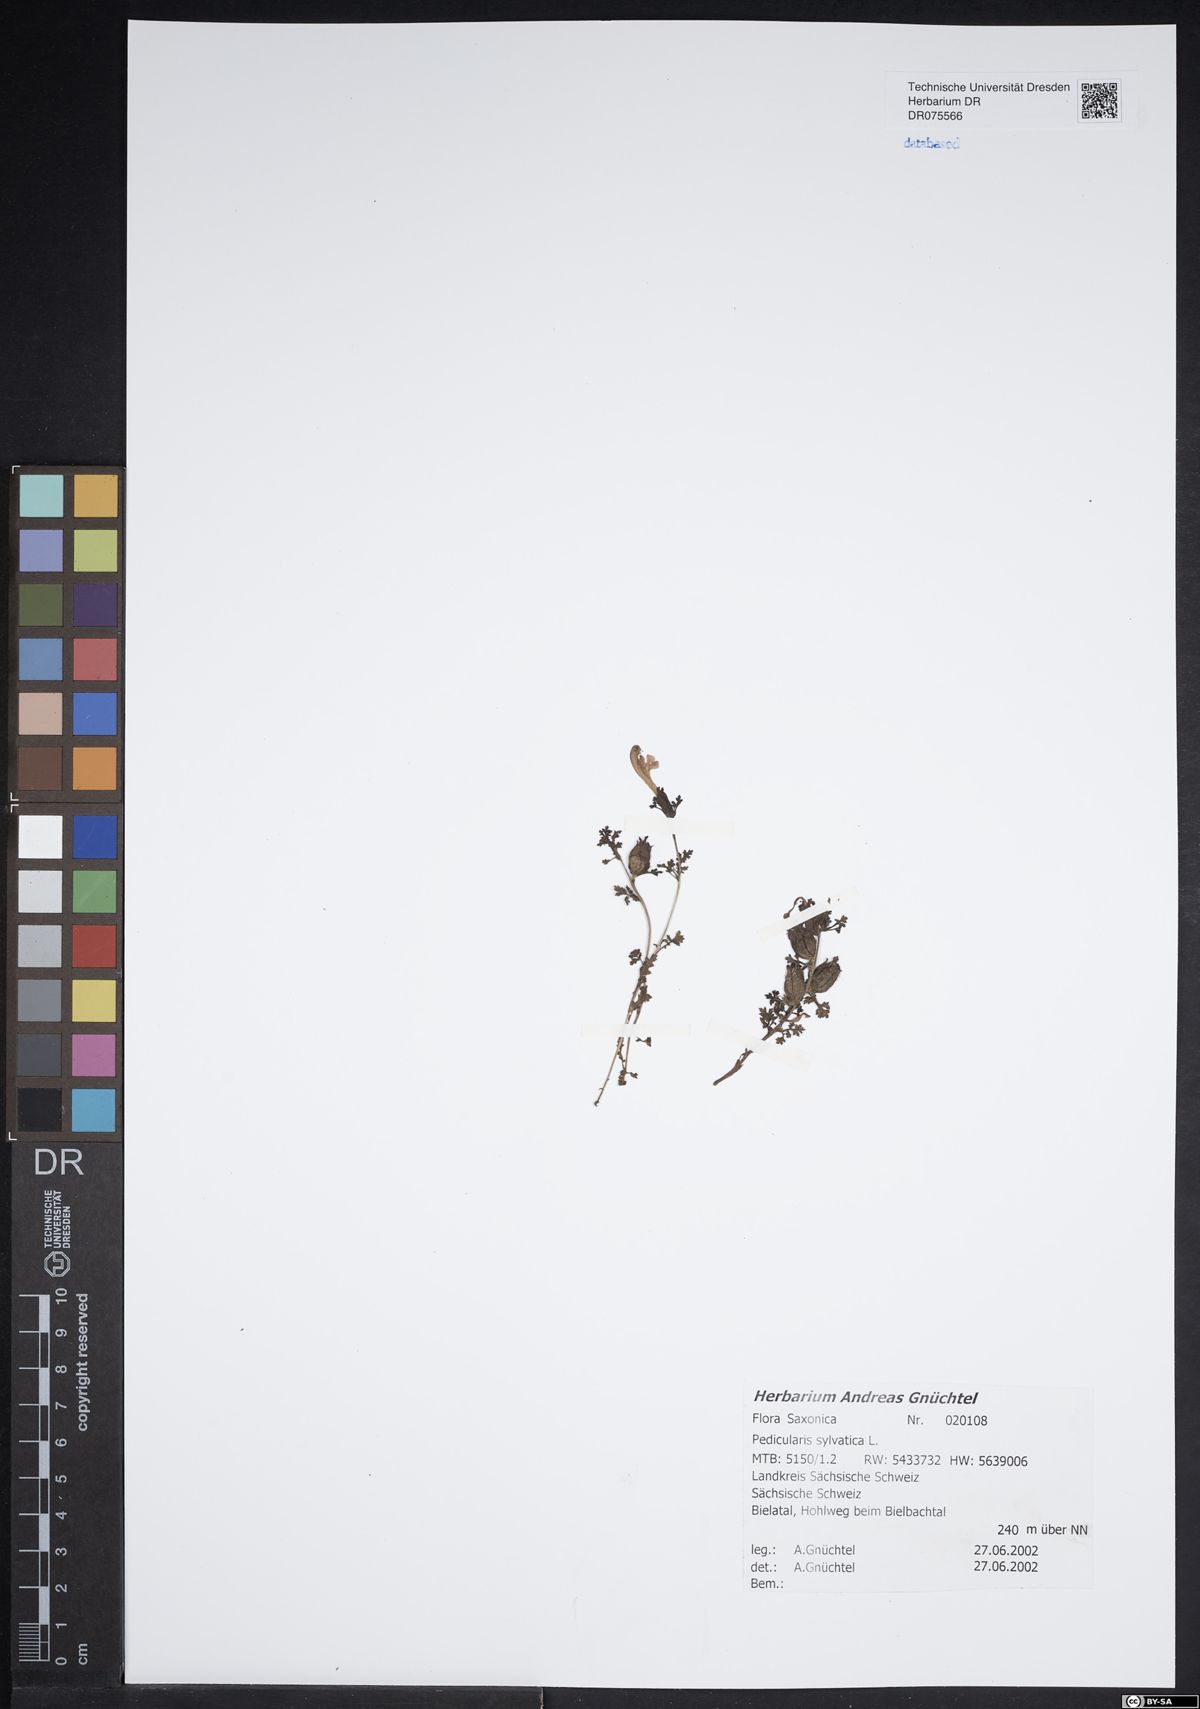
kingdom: Plantae
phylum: Tracheophyta
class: Magnoliopsida
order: Lamiales
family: Orobanchaceae
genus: Pedicularis
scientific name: Pedicularis sylvatica
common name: Lousewort
